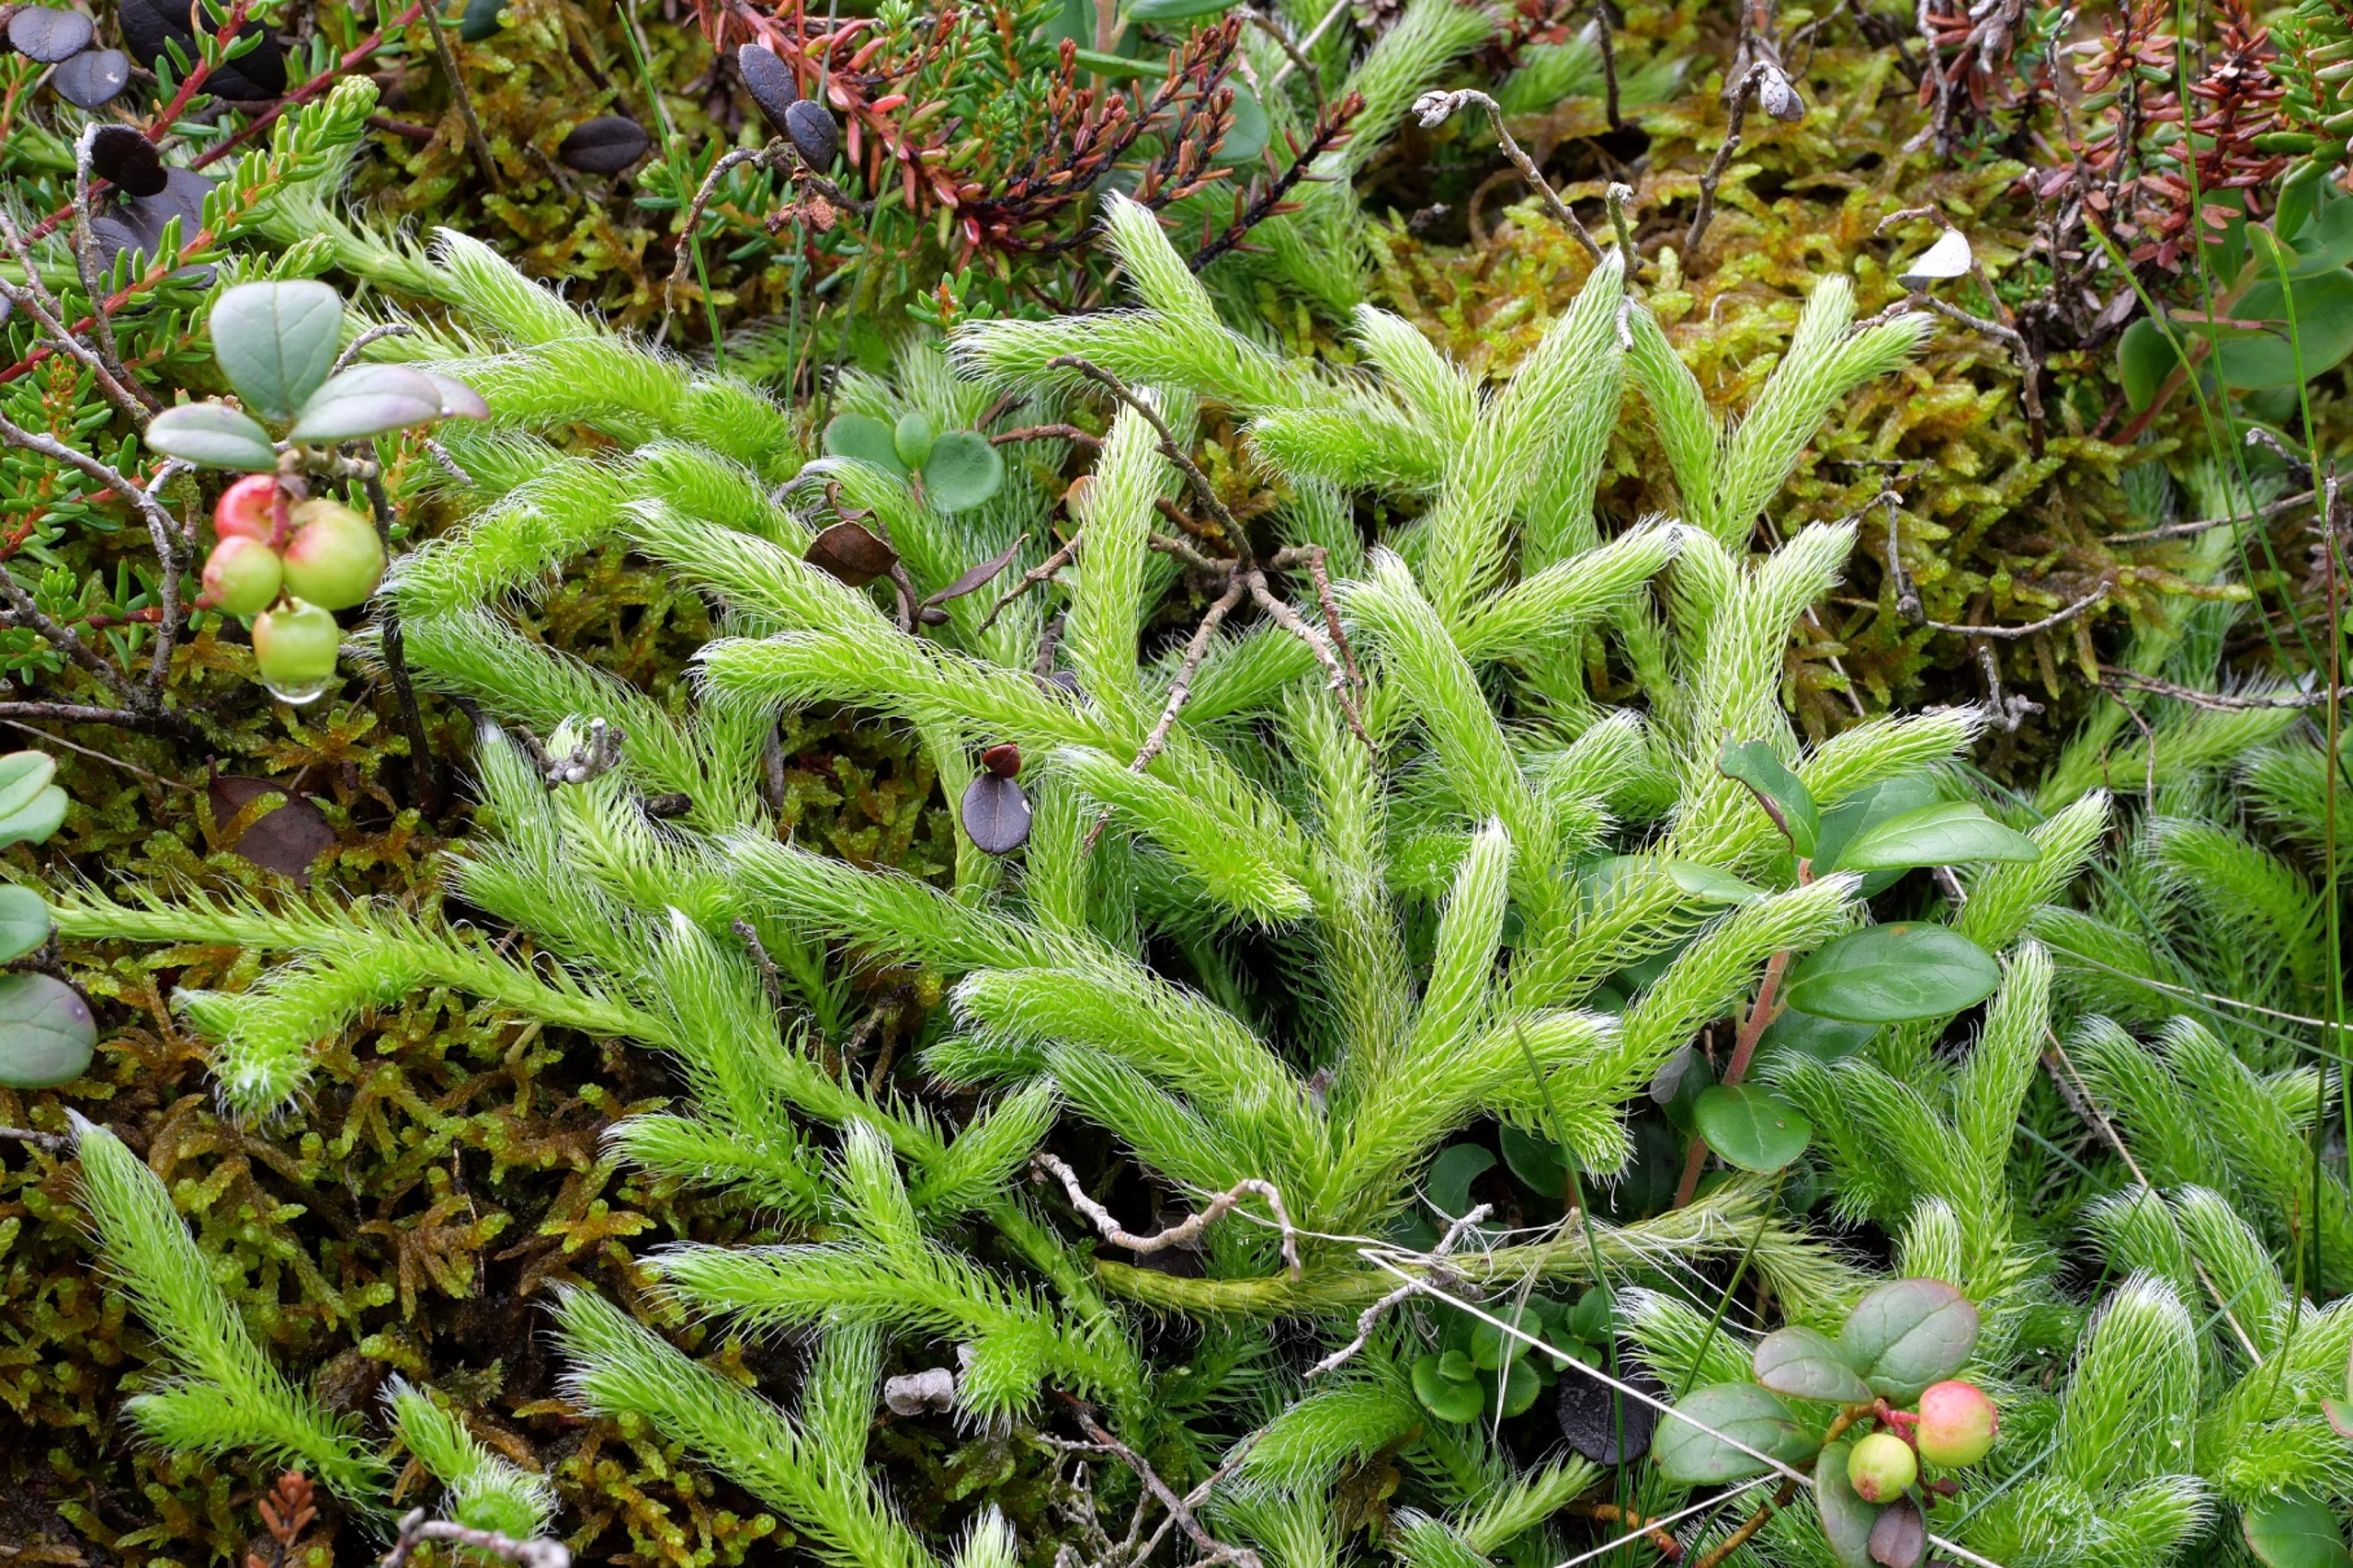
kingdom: Plantae
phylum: Tracheophyta
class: Lycopodiopsida
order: Lycopodiales
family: Lycopodiaceae
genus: Lycopodium
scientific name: Lycopodium clavatum
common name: Almindelig ulvefod
